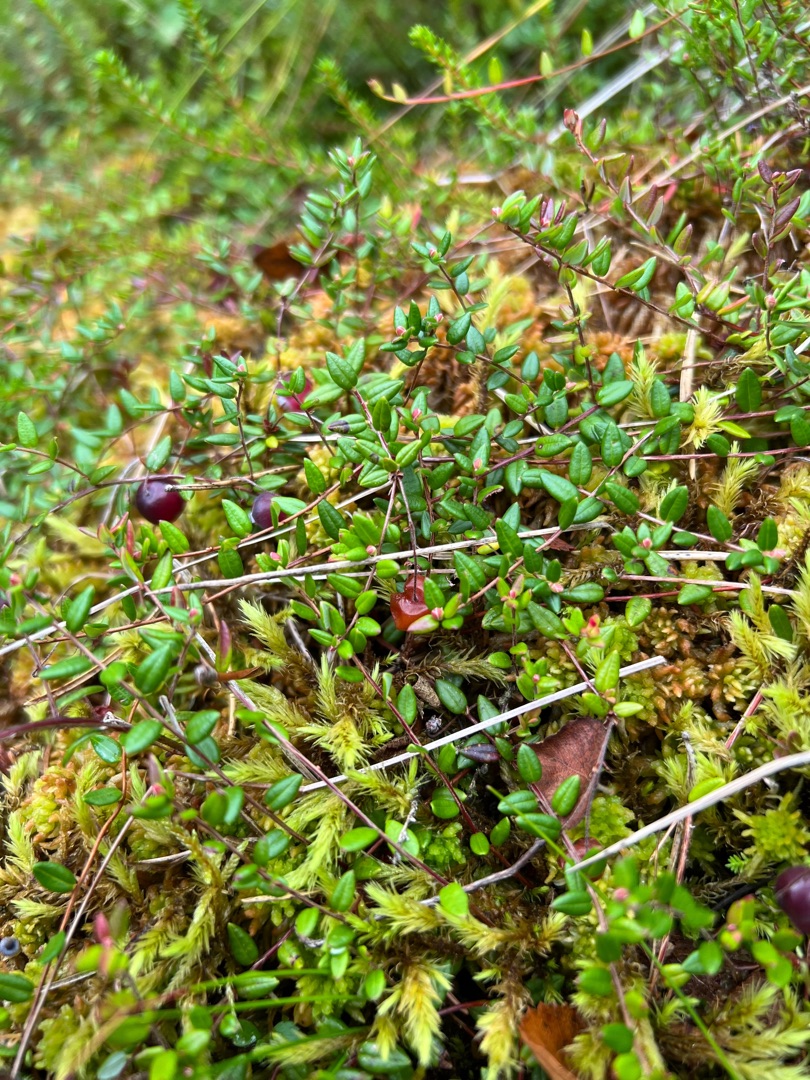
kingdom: Plantae
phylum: Tracheophyta
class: Magnoliopsida
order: Ericales
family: Ericaceae
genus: Vaccinium
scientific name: Vaccinium oxycoccos
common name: Tranebær
